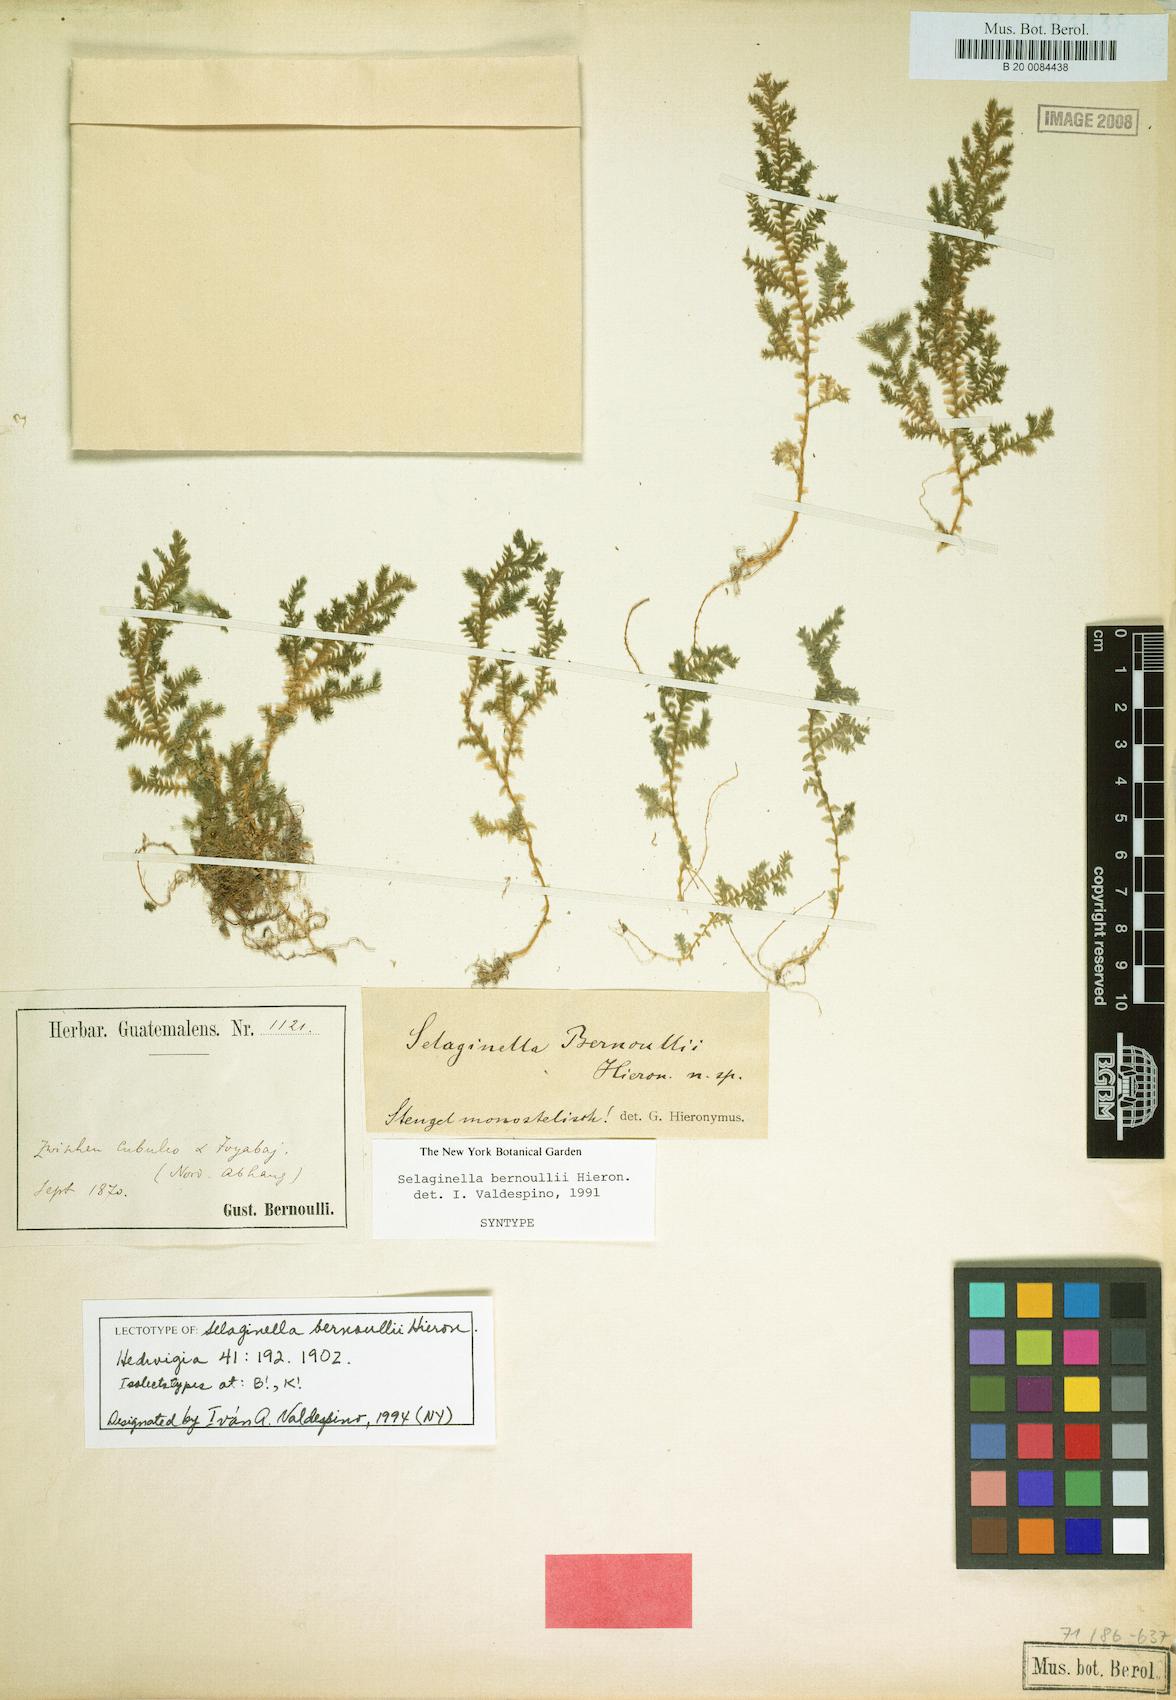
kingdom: Plantae
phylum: Tracheophyta
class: Lycopodiopsida
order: Selaginellales
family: Selaginellaceae
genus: Selaginella
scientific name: Selaginella bernoullii
